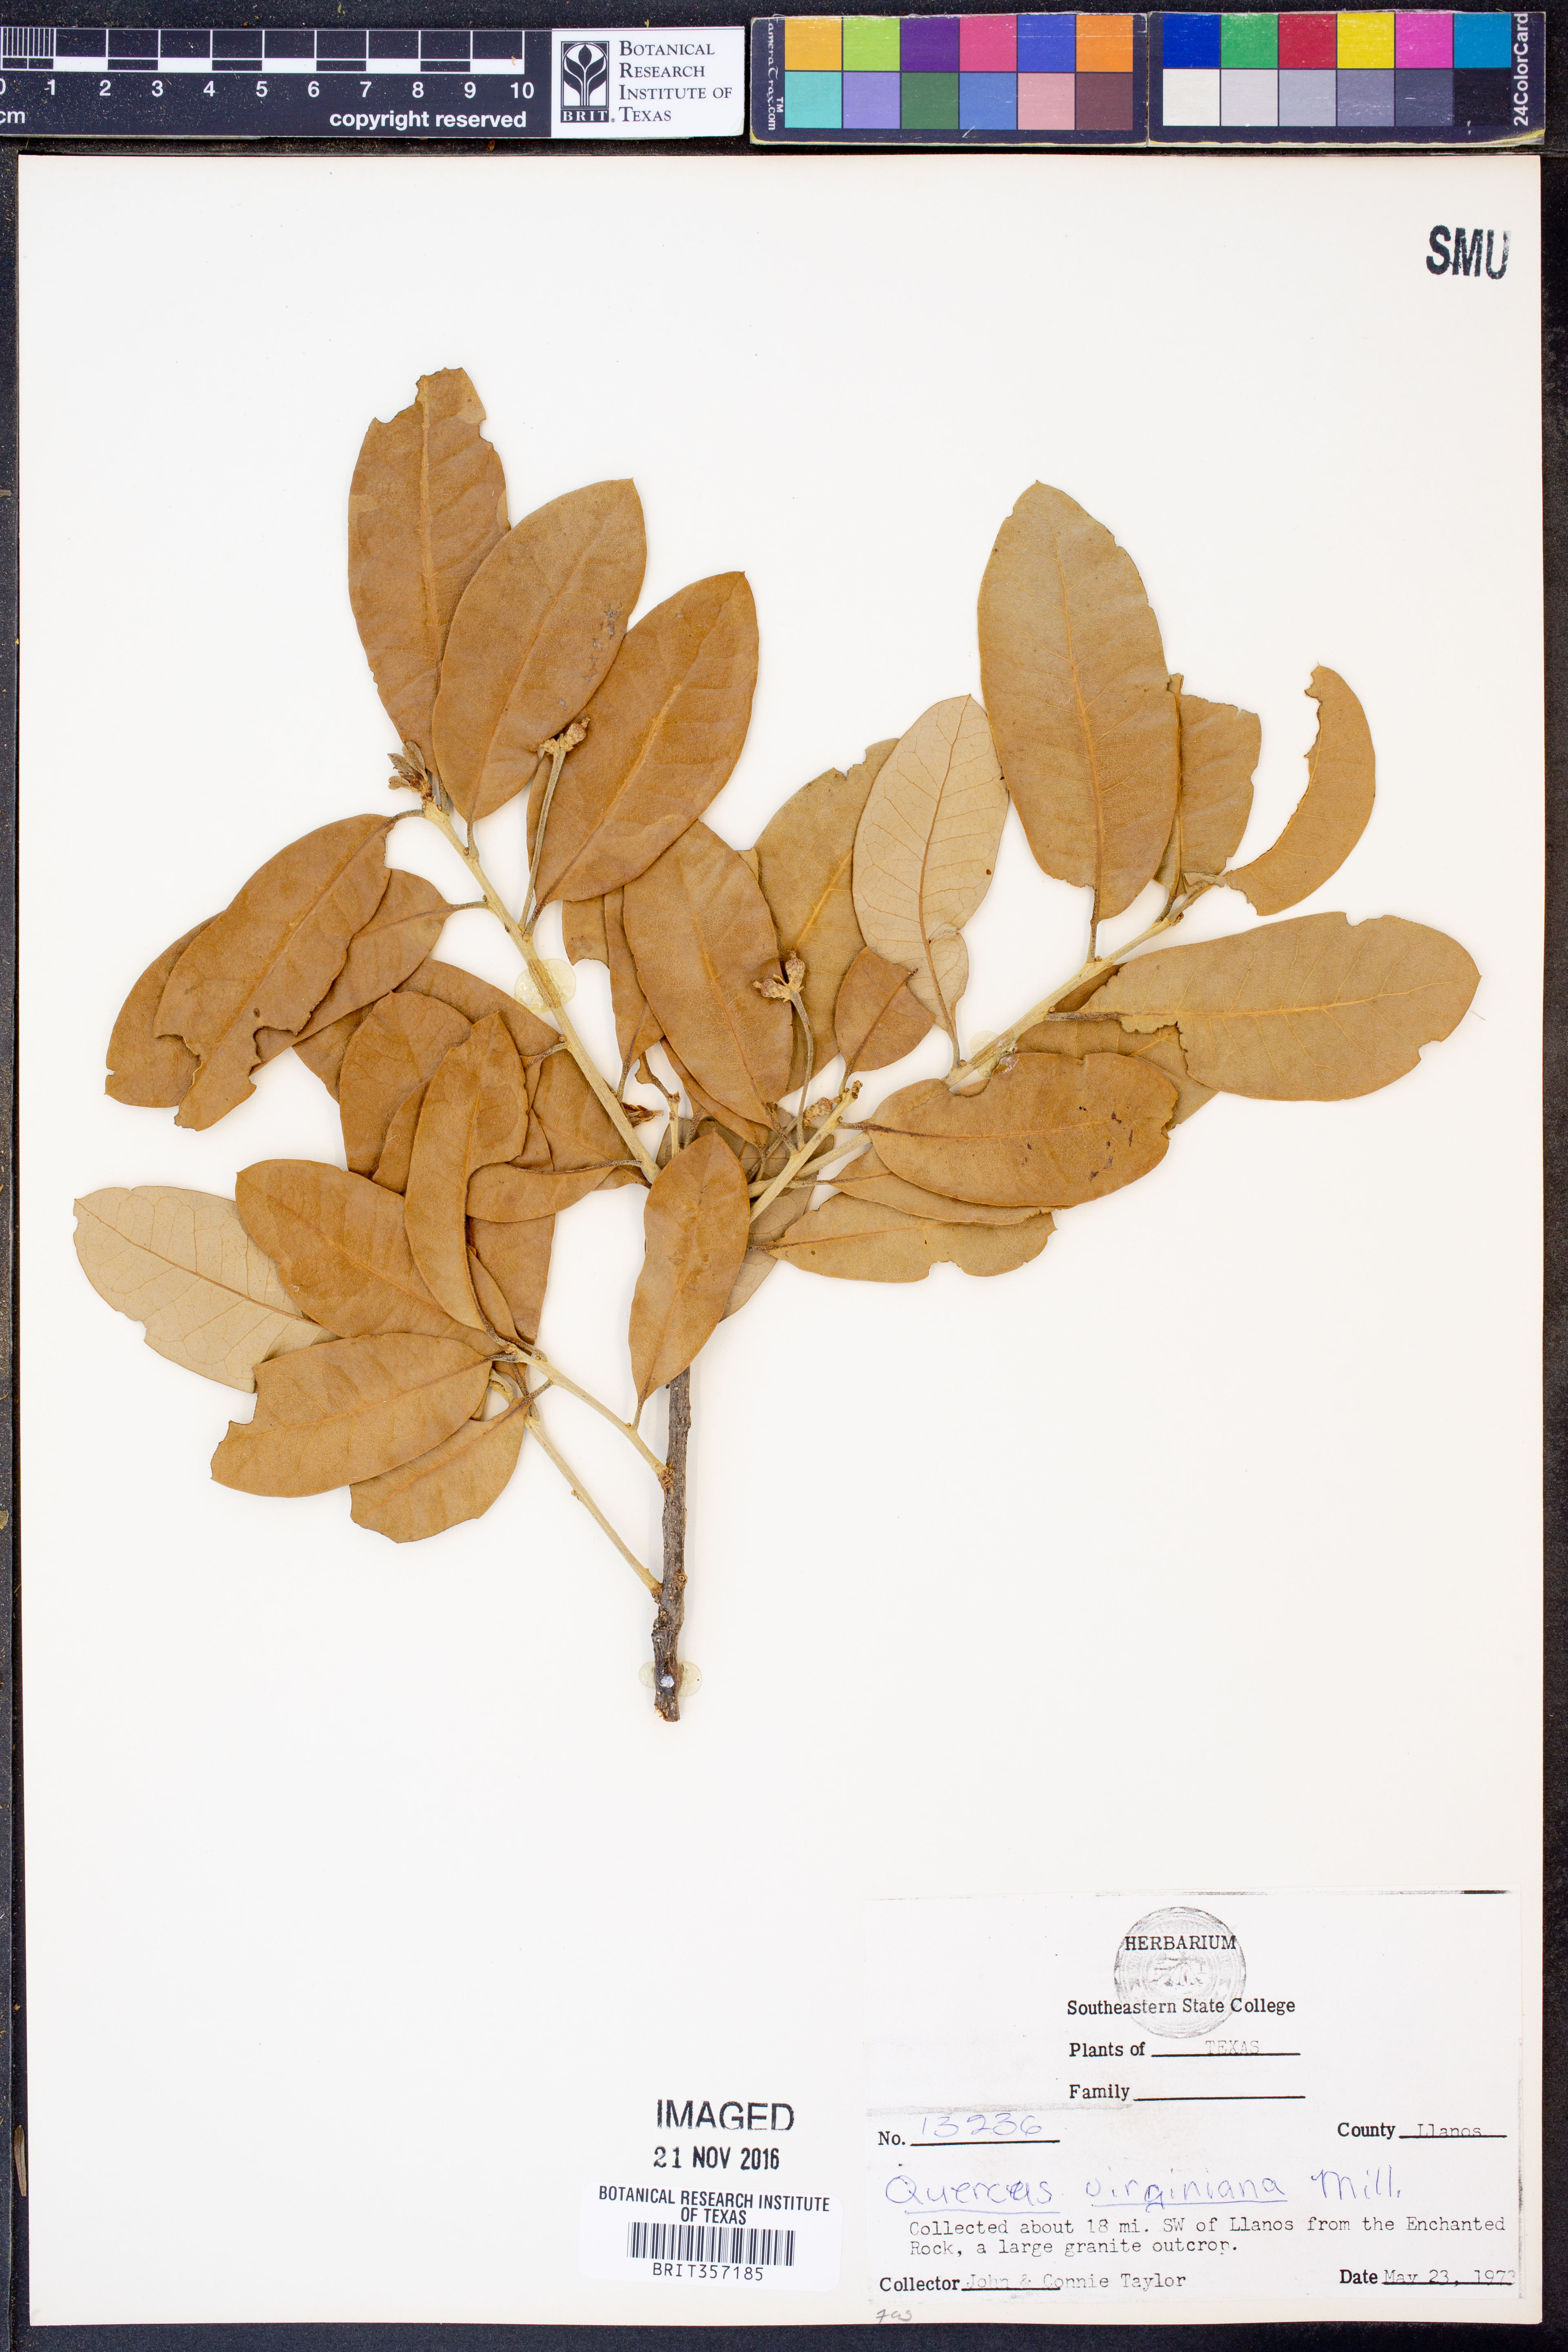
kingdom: Plantae
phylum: Tracheophyta
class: Magnoliopsida
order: Fagales
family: Fagaceae
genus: Quercus
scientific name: Quercus virginiana
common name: Southern live oak
